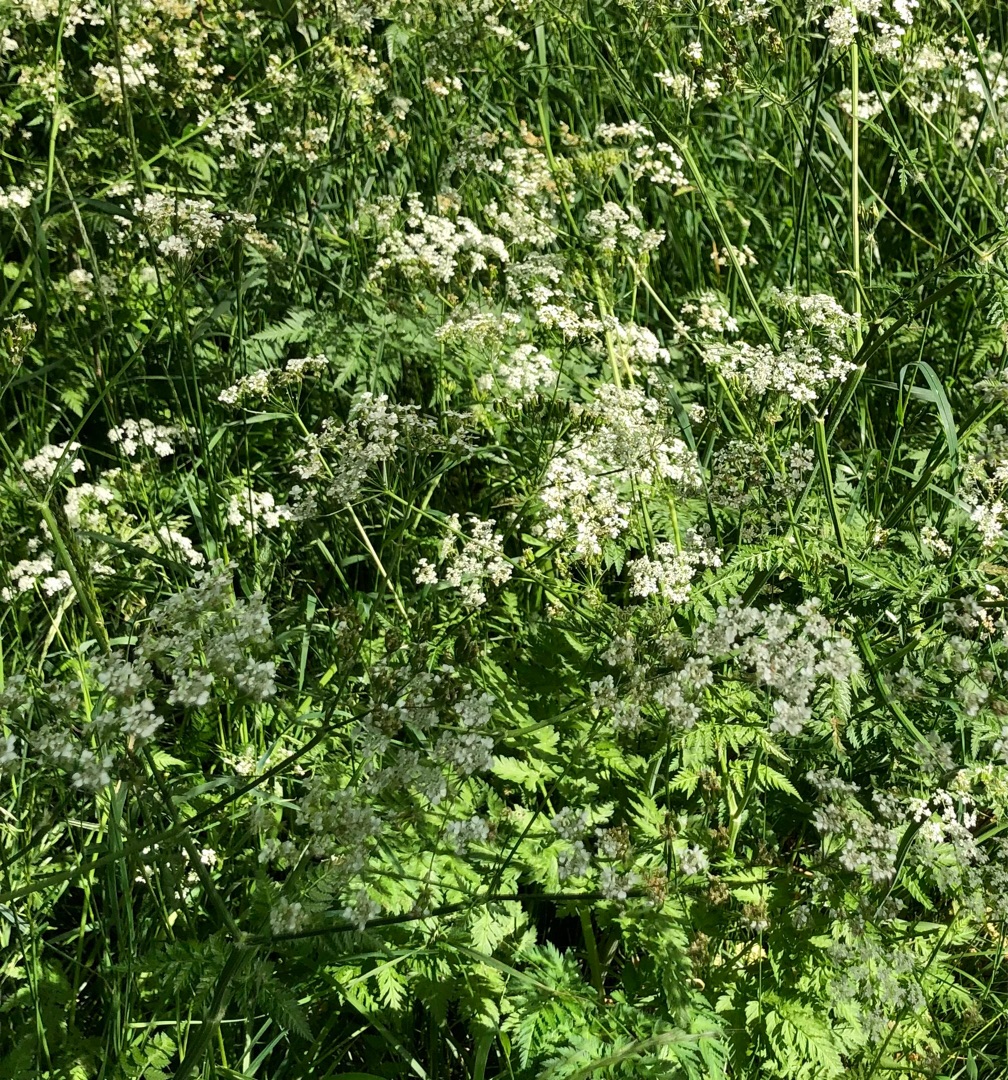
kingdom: Plantae
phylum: Tracheophyta
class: Magnoliopsida
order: Apiales
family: Apiaceae
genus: Anthriscus
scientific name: Anthriscus sylvestris
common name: Vild kørvel
